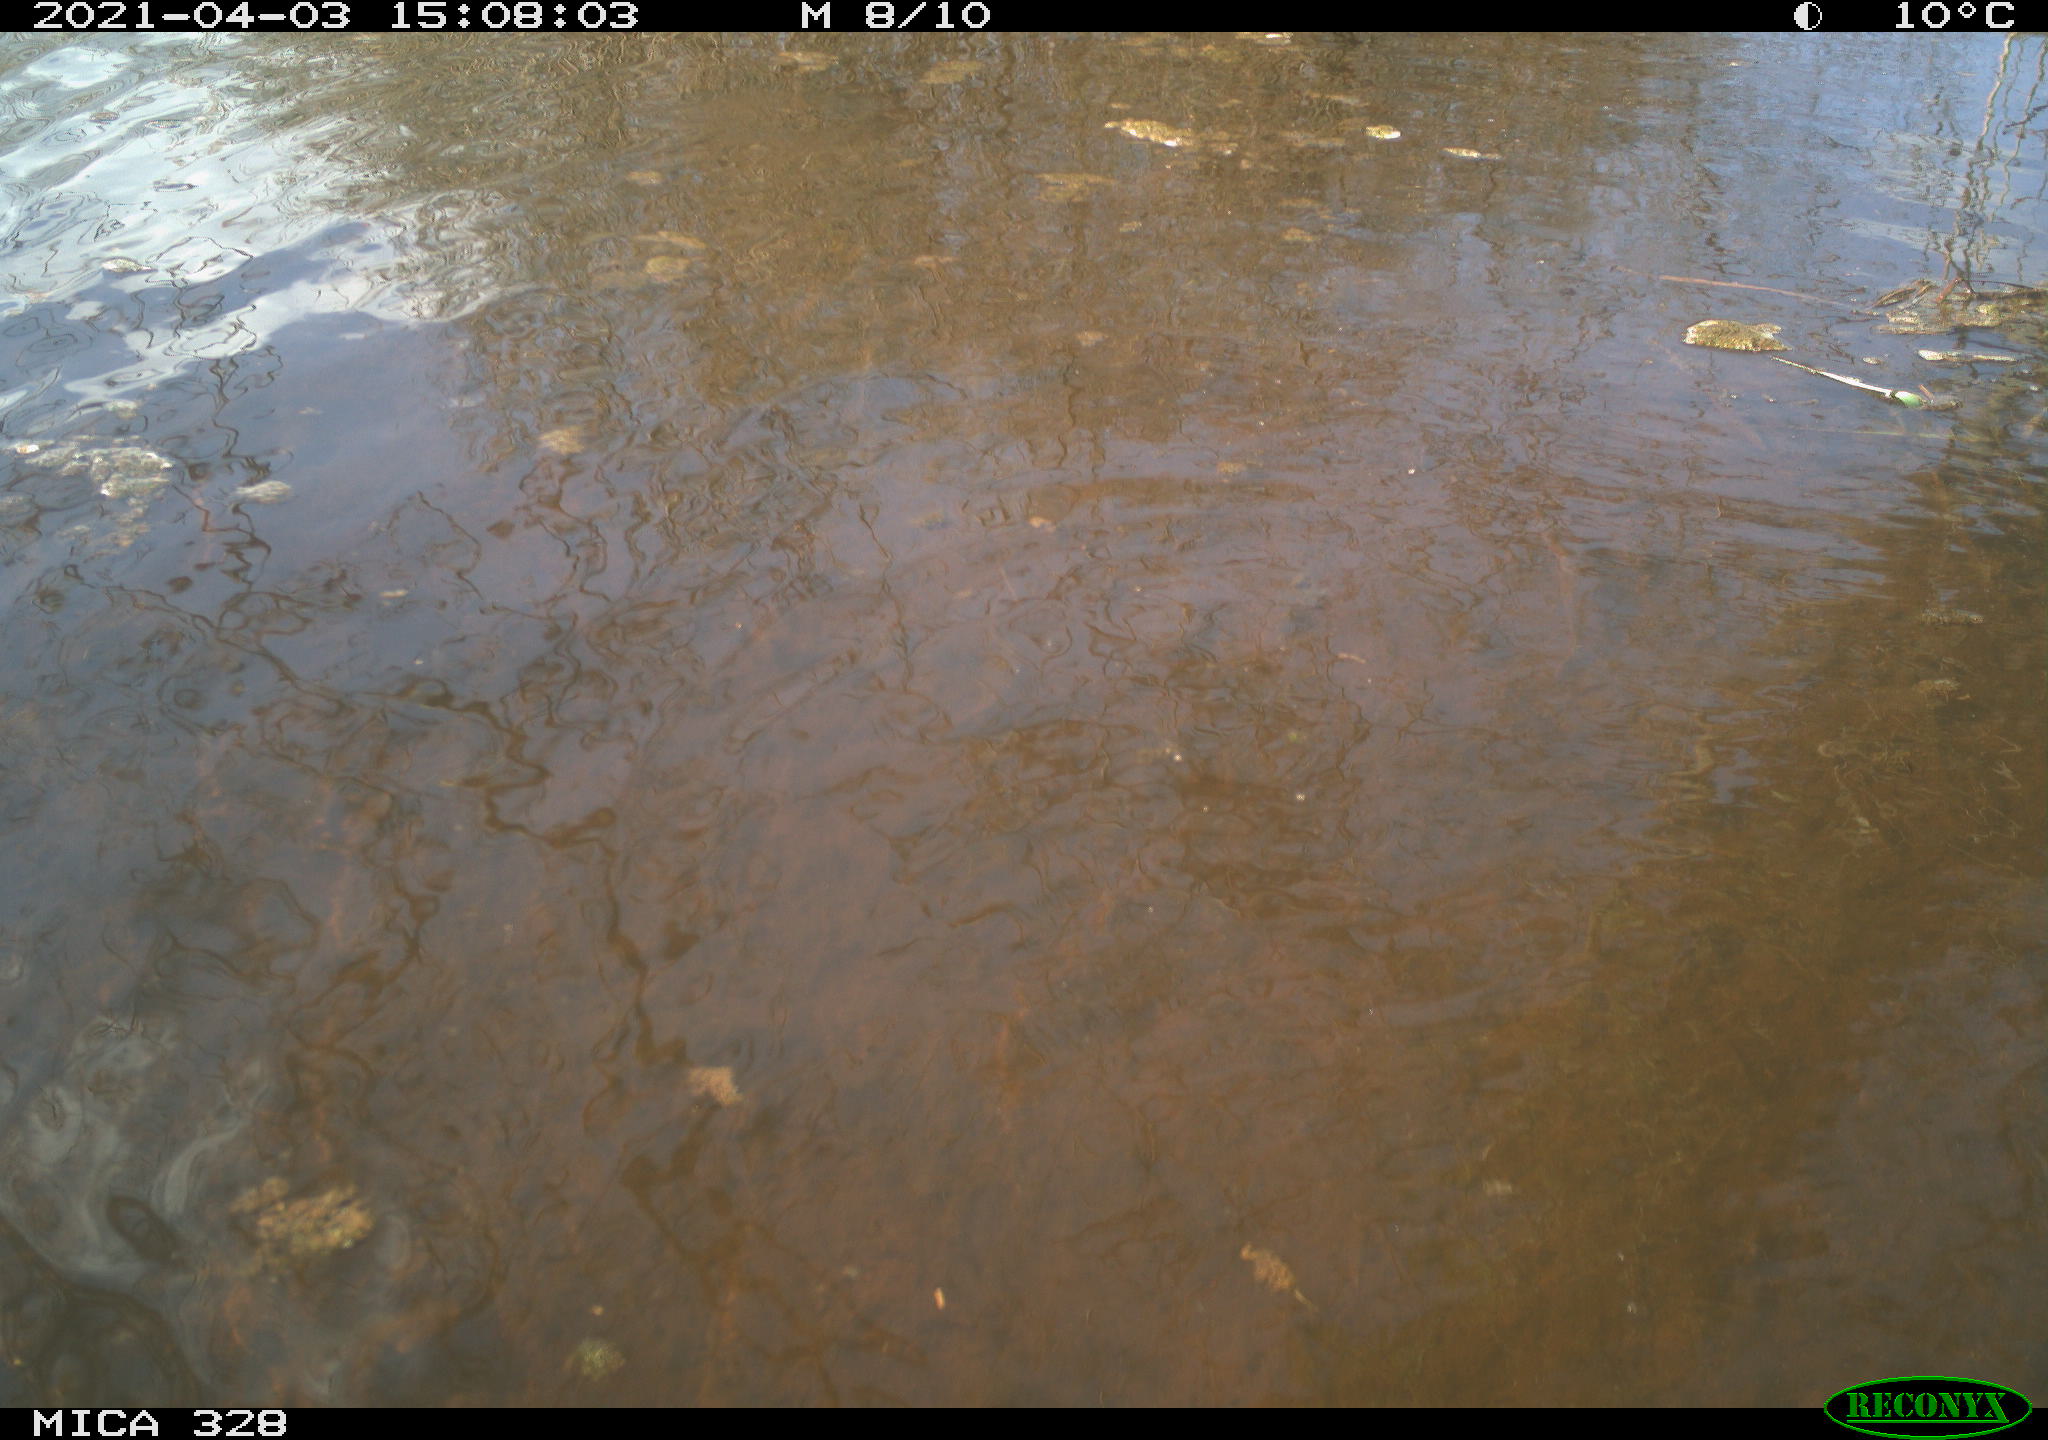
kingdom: Animalia
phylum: Chordata
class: Mammalia
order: Rodentia
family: Cricetidae
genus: Ondatra
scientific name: Ondatra zibethicus
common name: Muskrat
